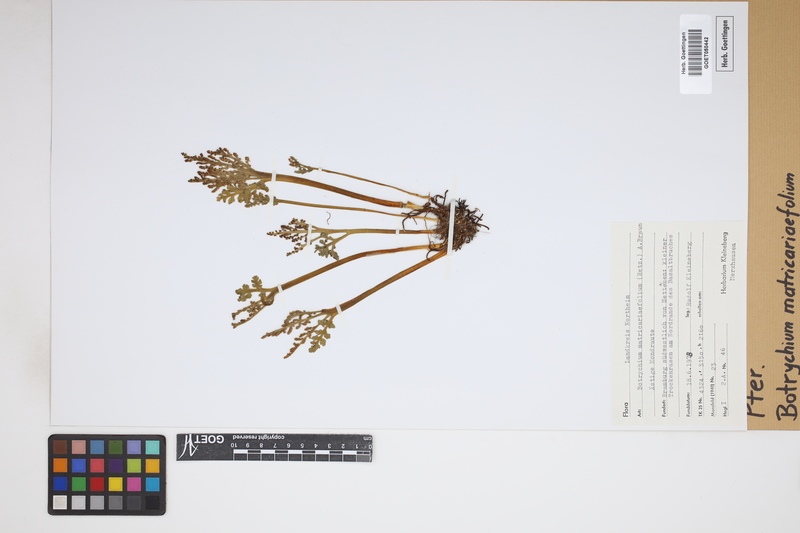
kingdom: Plantae
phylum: Tracheophyta
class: Polypodiopsida
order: Ophioglossales
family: Ophioglossaceae
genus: Botrychium
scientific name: Botrychium matricariifolium
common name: Branched moonwort
